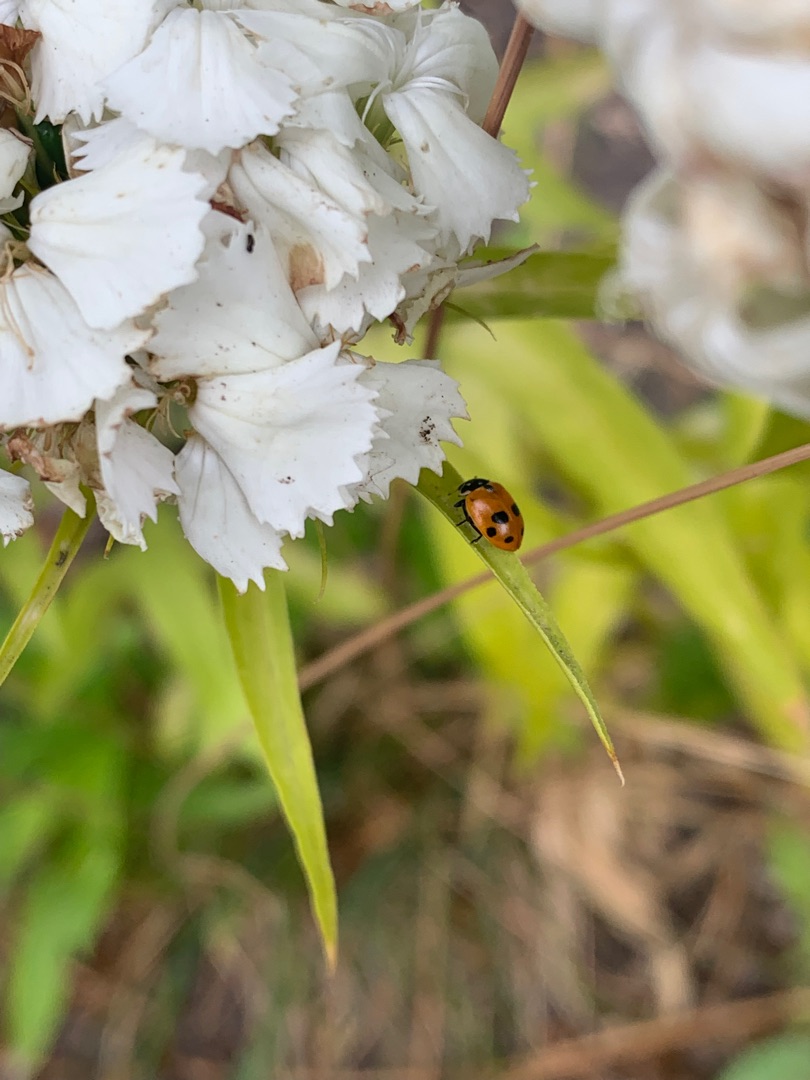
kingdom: Animalia
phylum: Arthropoda
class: Insecta
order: Coleoptera
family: Coccinellidae
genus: Hippodamia
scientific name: Hippodamia variegata
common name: Adonis' mariehøne
